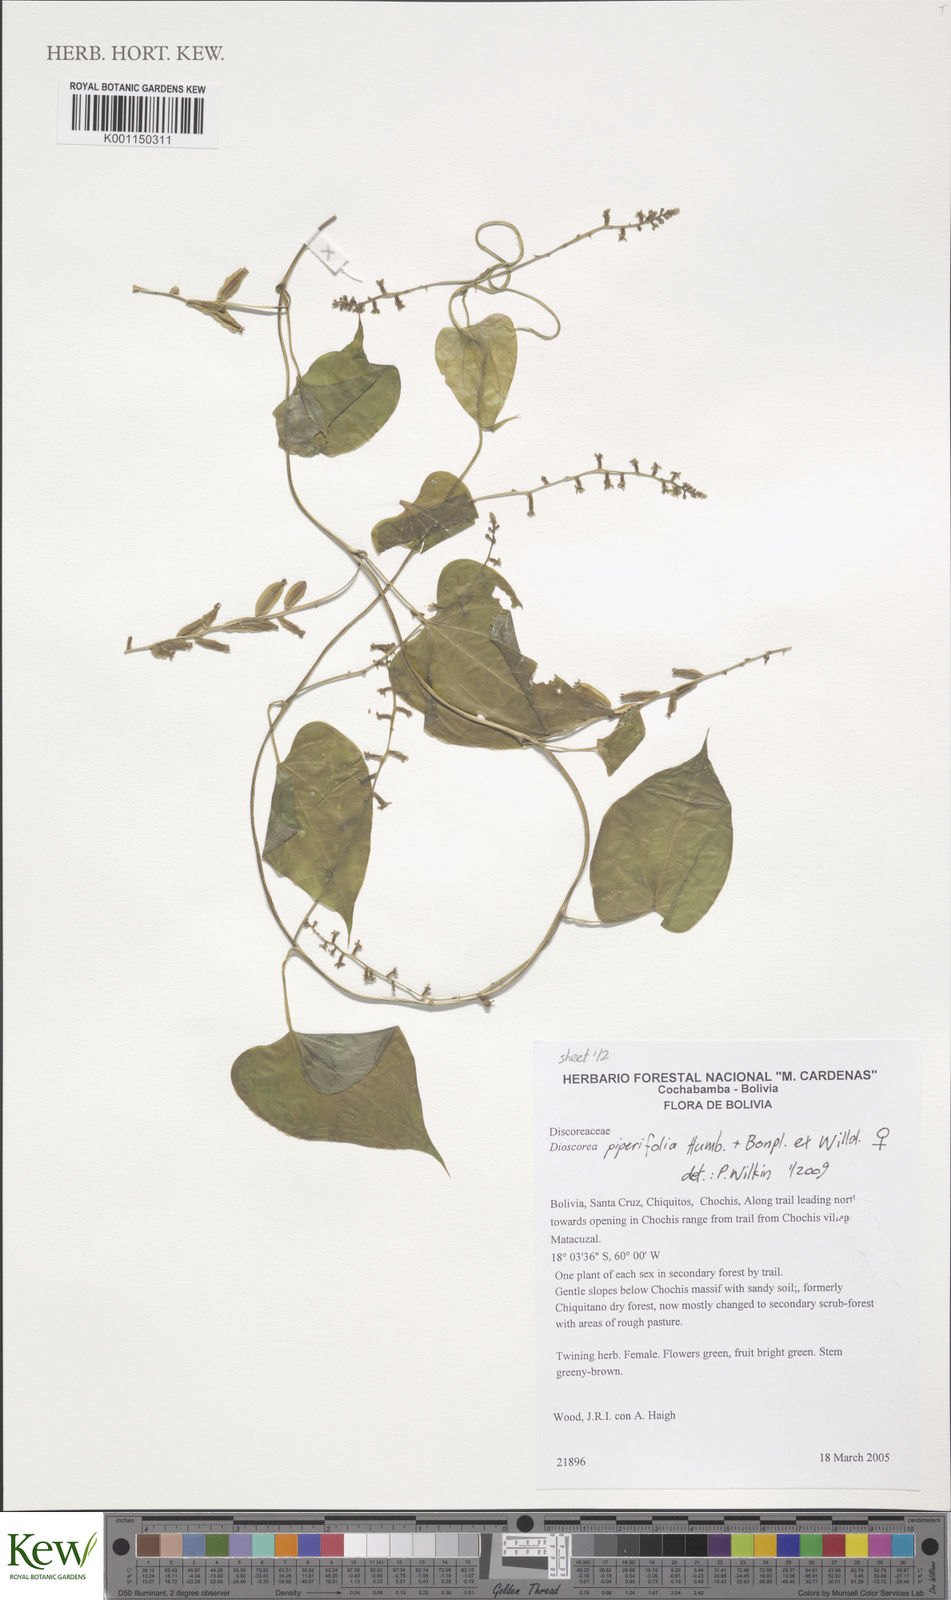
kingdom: Plantae
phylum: Tracheophyta
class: Liliopsida
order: Dioscoreales
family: Dioscoreaceae
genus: Dioscorea
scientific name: Dioscorea piperifolia
